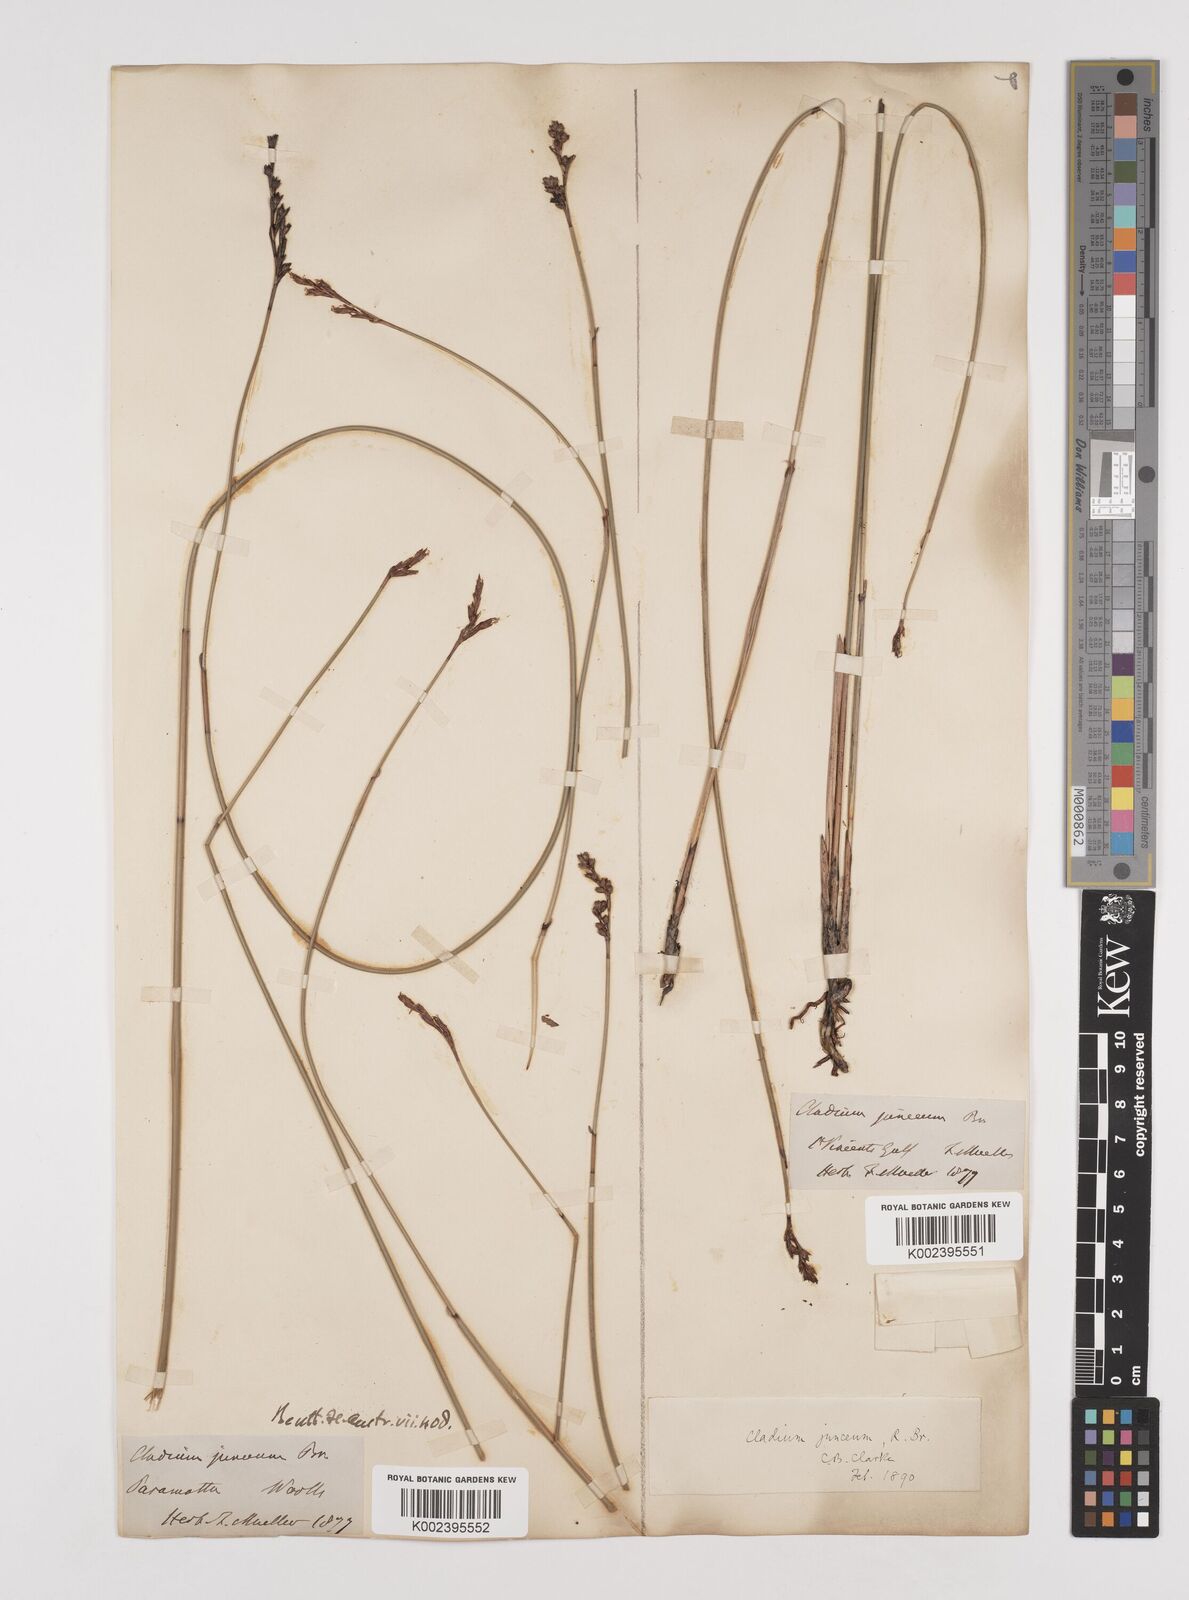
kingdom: Plantae
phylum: Tracheophyta
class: Liliopsida
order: Poales
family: Cyperaceae
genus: Machaerina
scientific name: Machaerina juncea
